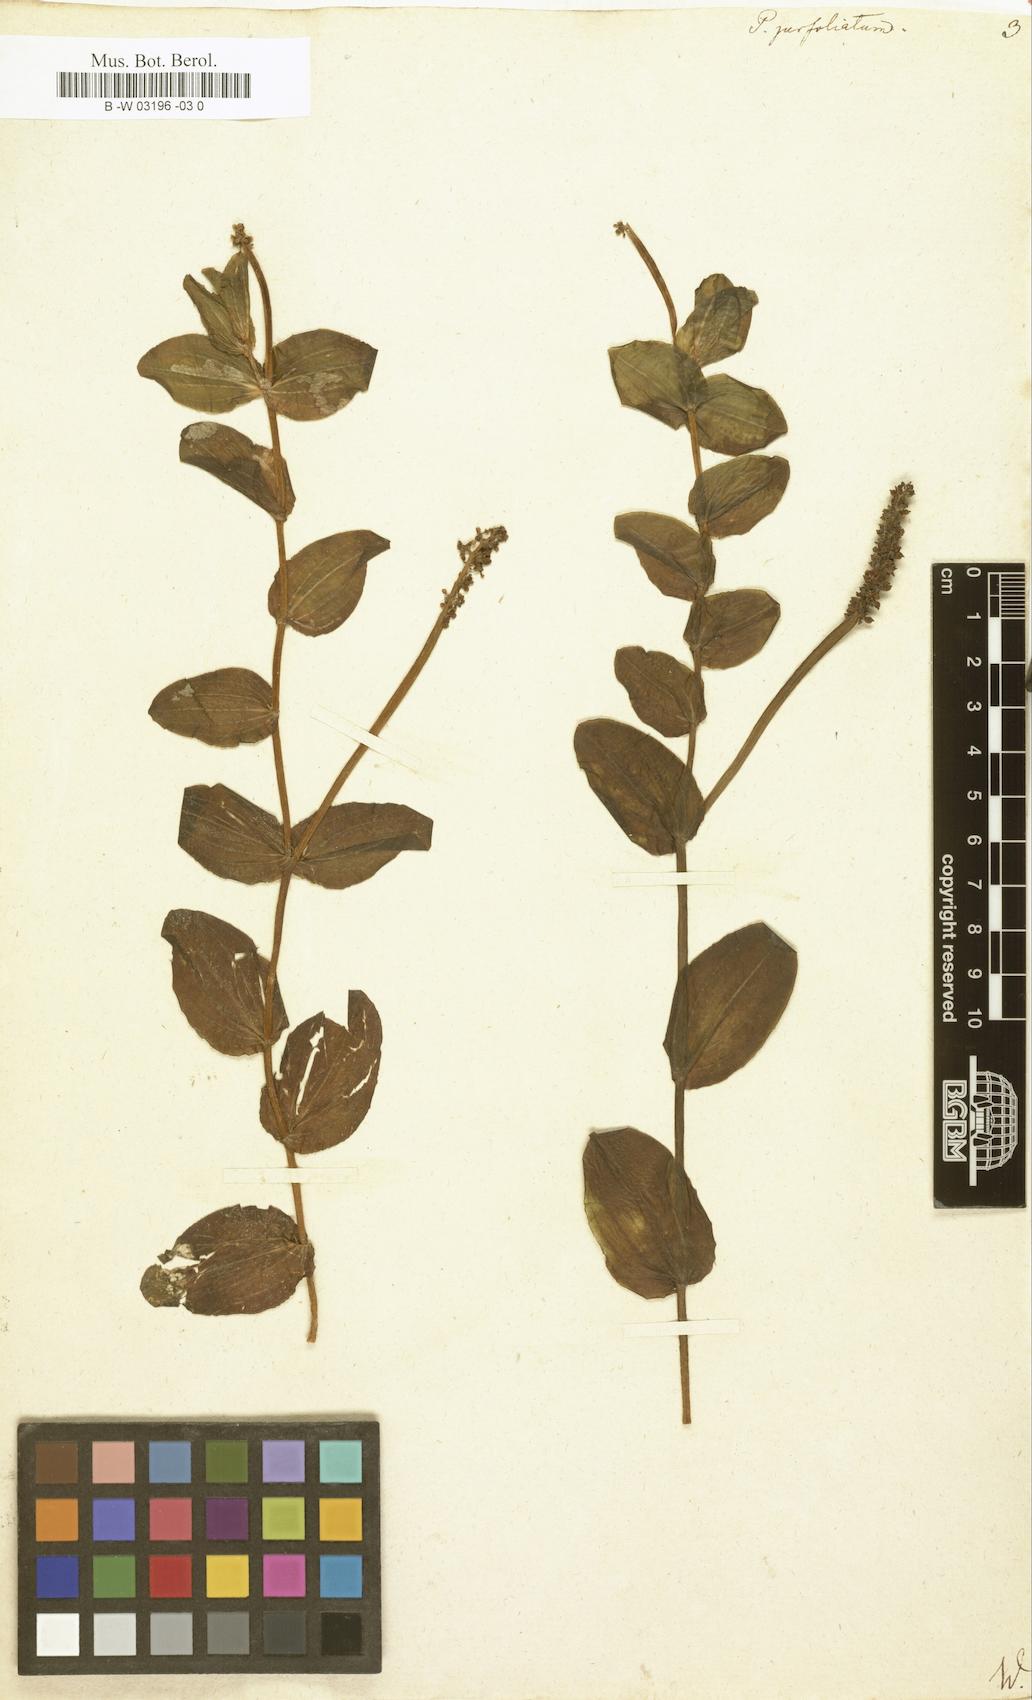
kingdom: Plantae
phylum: Tracheophyta
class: Liliopsida
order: Alismatales
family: Potamogetonaceae
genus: Potamogeton
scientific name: Potamogeton perfoliatus
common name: Perfoliate pondweed
